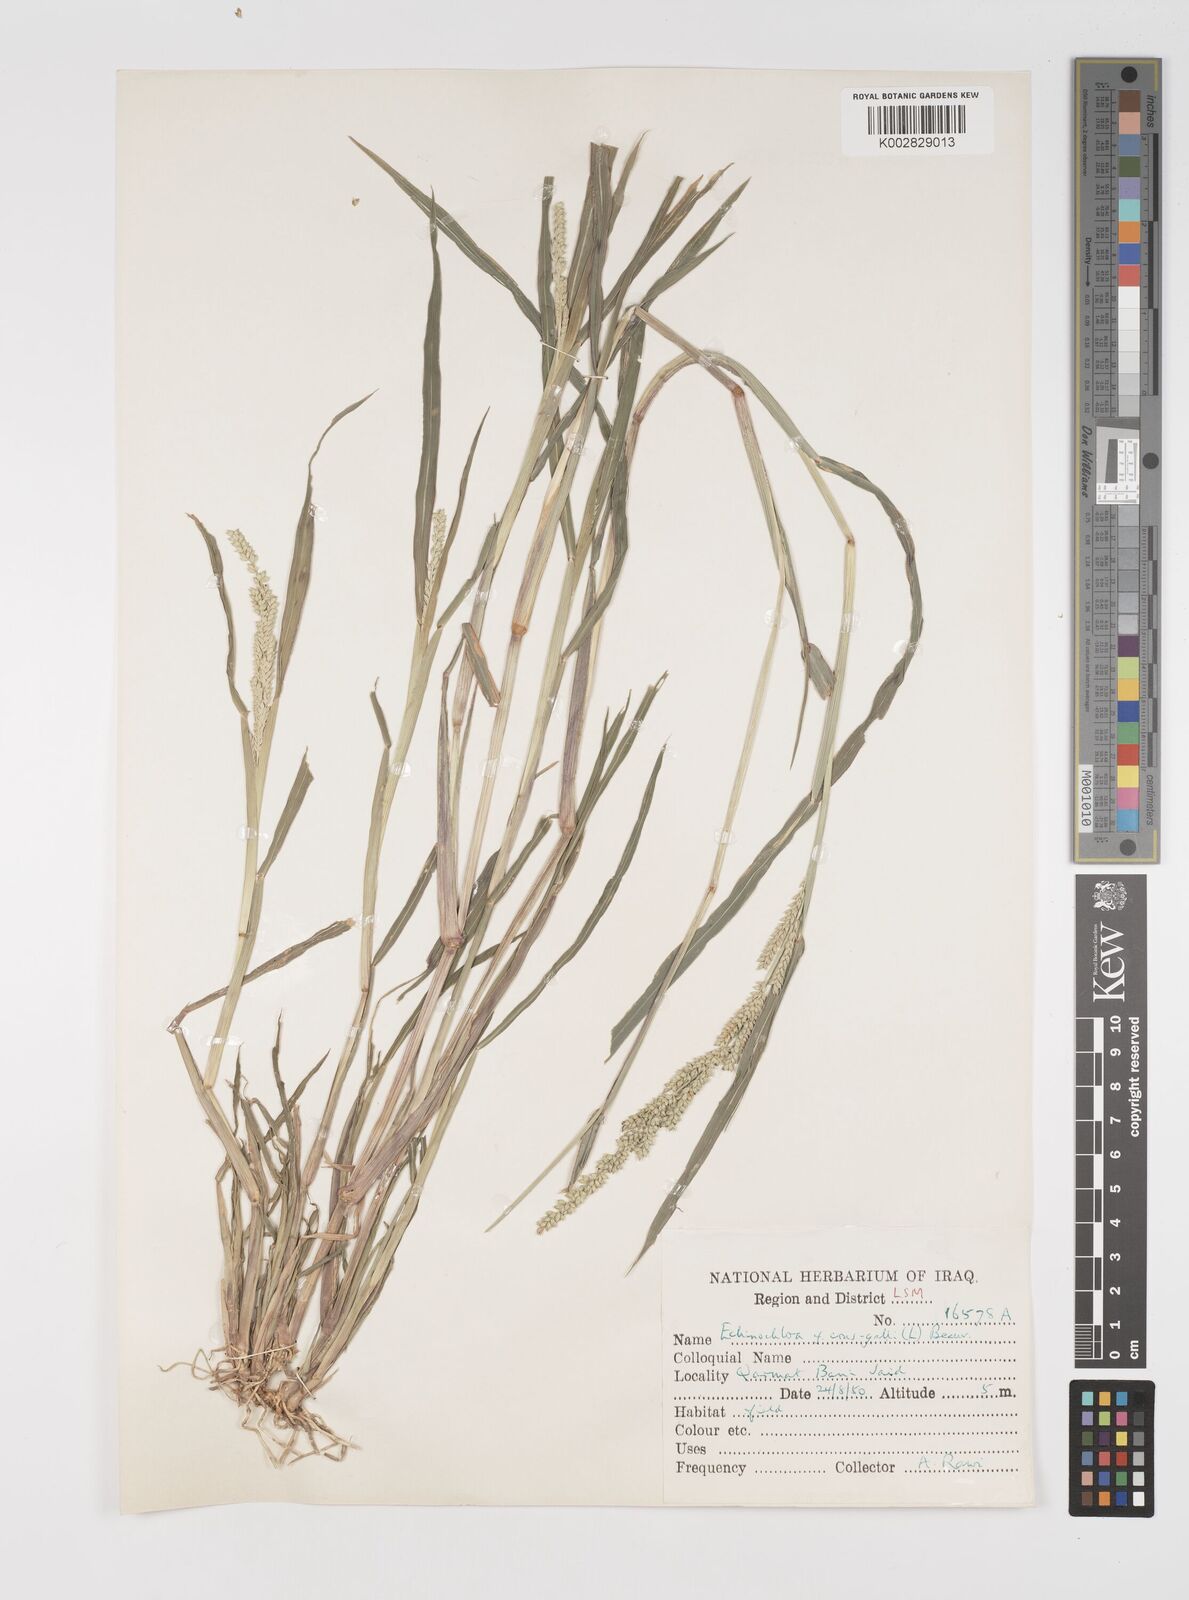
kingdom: Plantae
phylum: Tracheophyta
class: Liliopsida
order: Poales
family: Poaceae
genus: Echinochloa
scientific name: Echinochloa colonum
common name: Jungle rice
